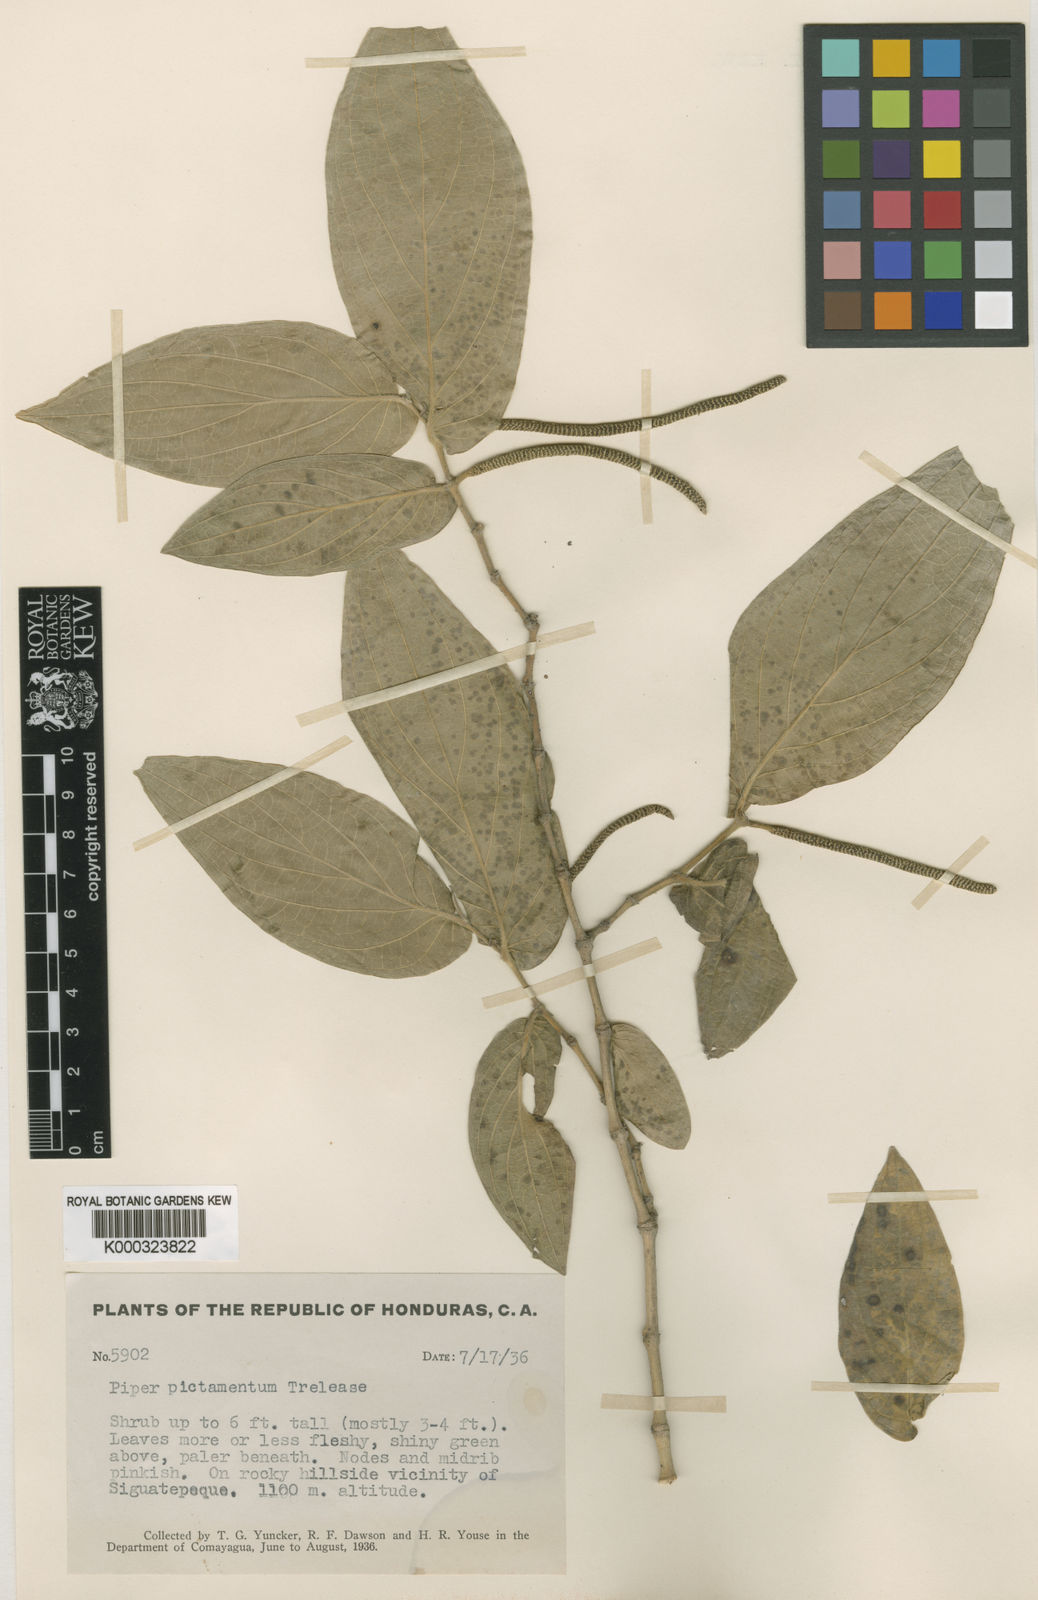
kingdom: Plantae
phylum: Tracheophyta
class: Magnoliopsida
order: Piperales
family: Piperaceae
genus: Piper
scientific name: Piper achoteanum
